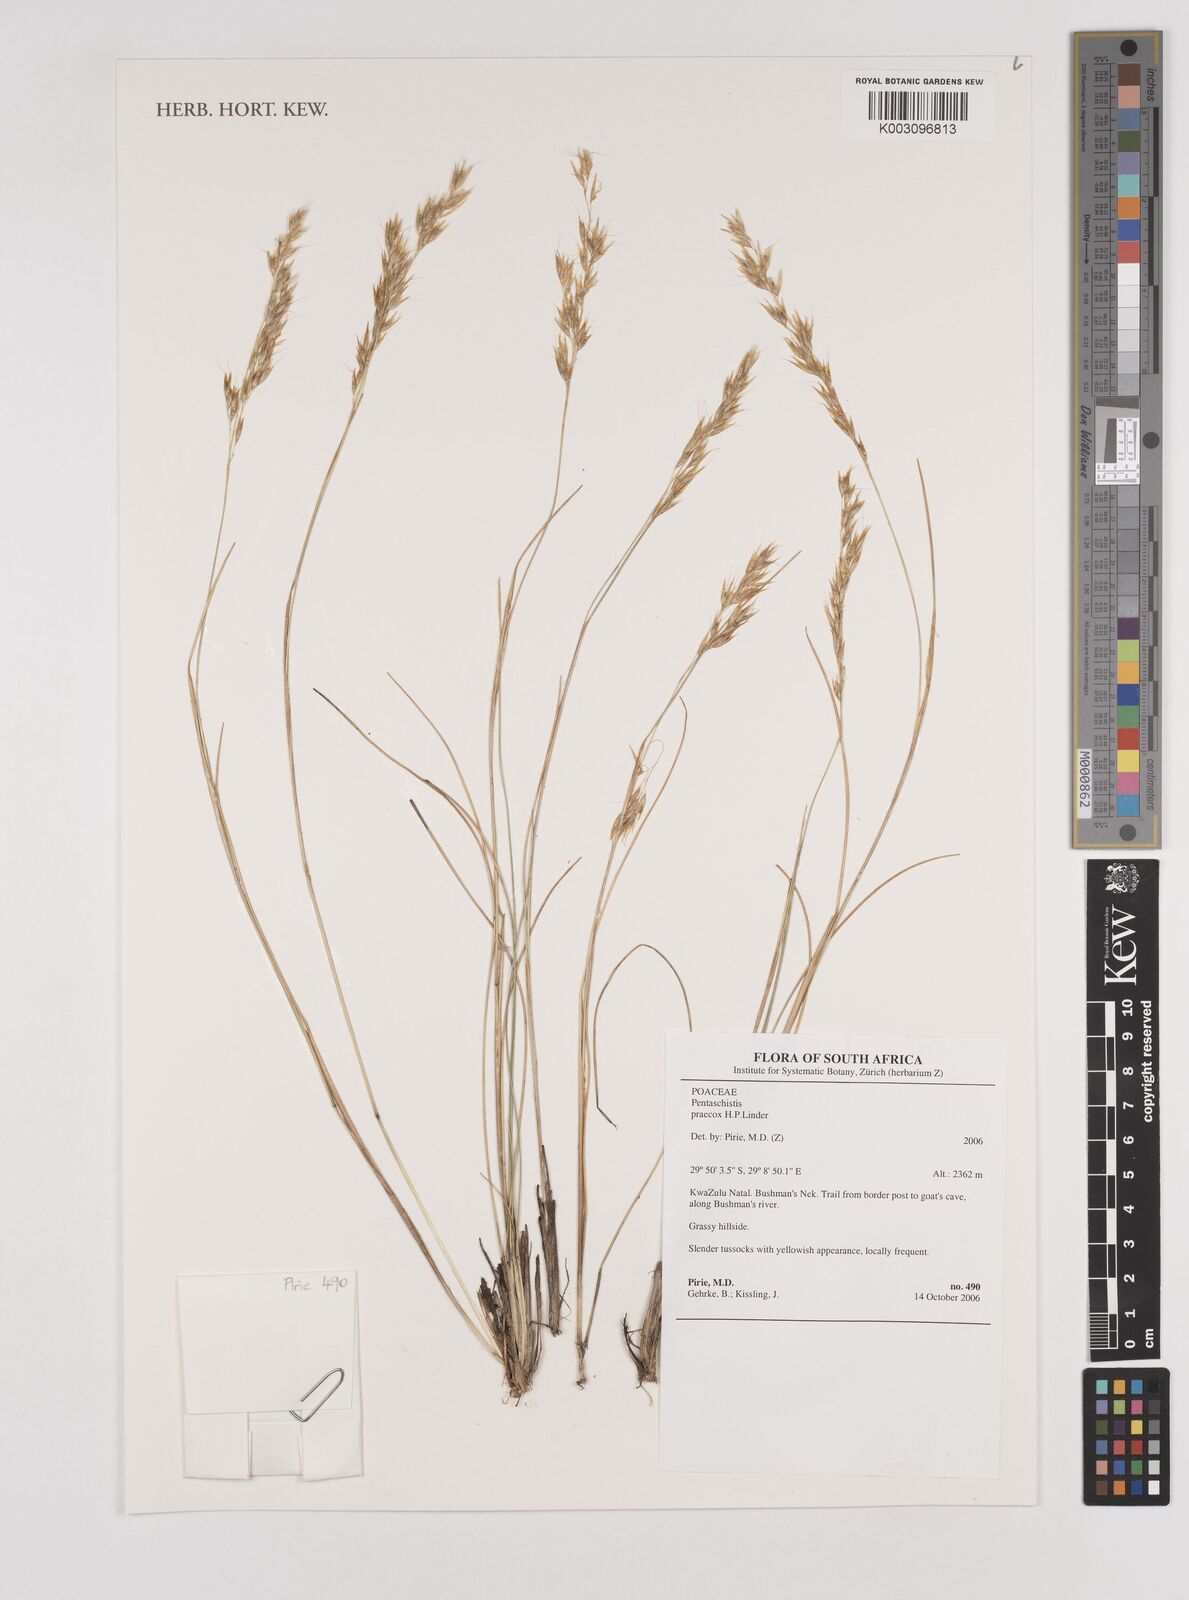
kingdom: Plantae
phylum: Tracheophyta
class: Liliopsida
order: Poales
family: Poaceae
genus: Pentameris
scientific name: Pentameris praecox
